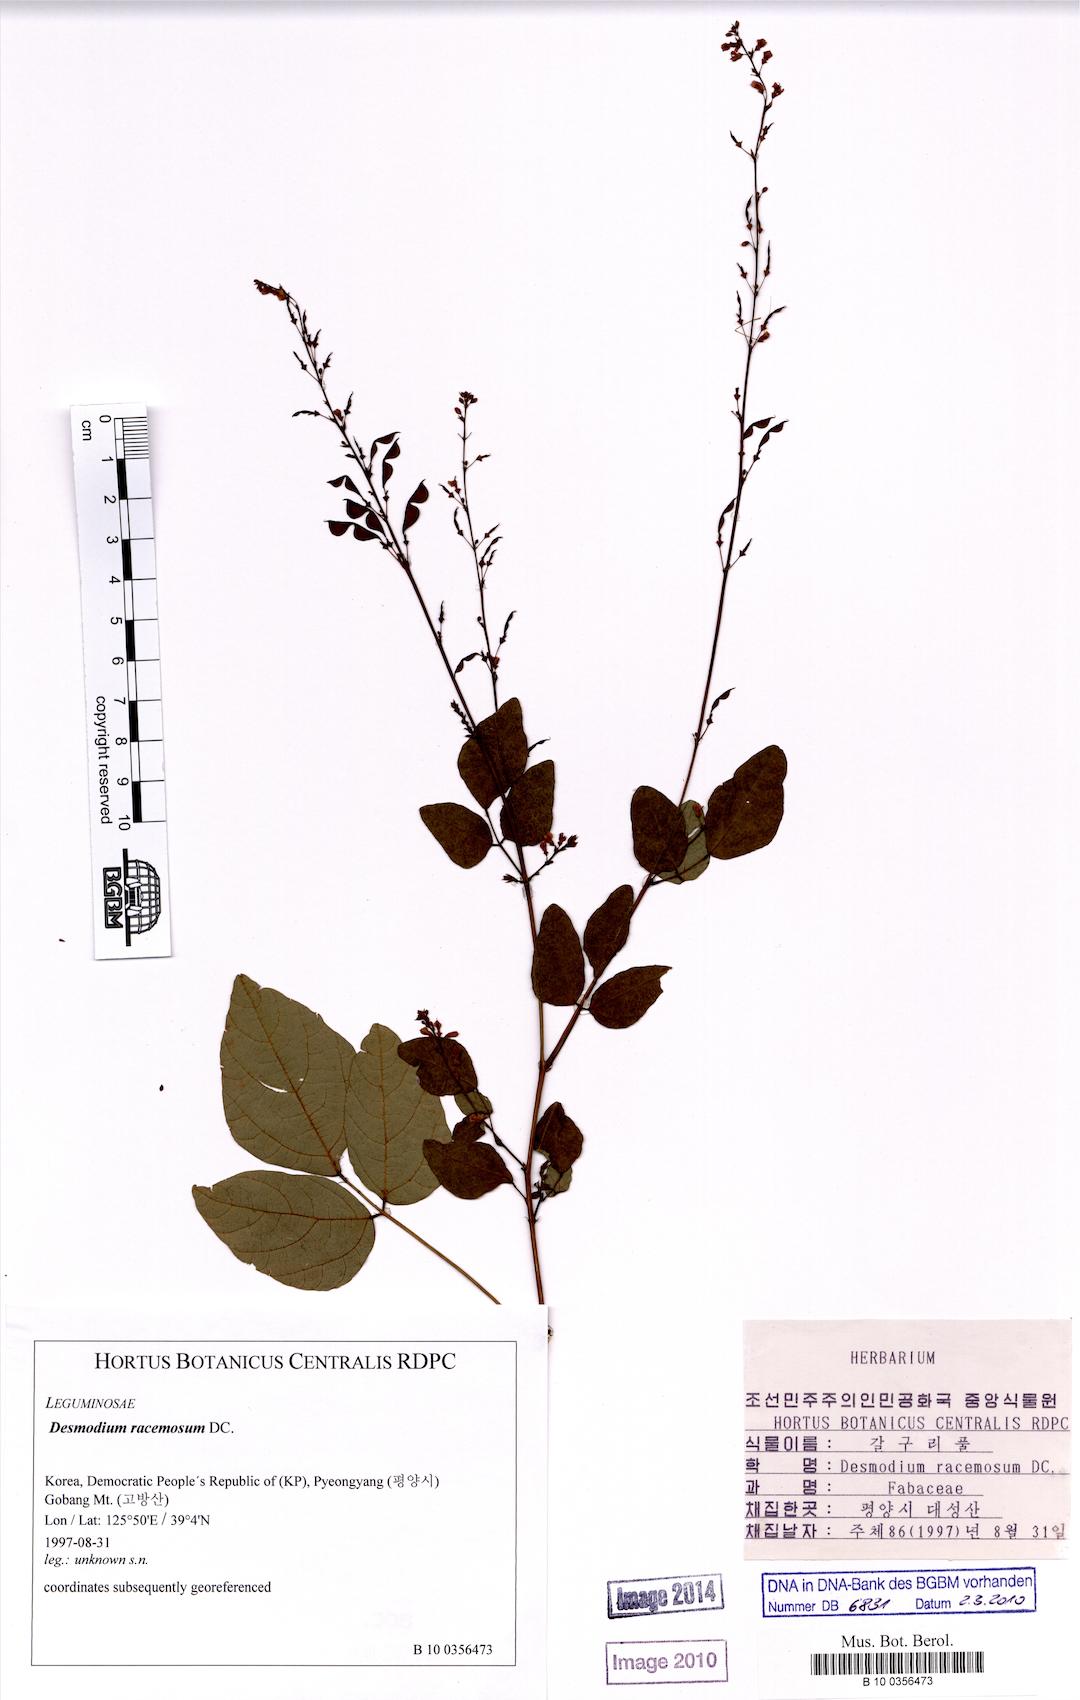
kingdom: Plantae
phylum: Tracheophyta
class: Magnoliopsida
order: Fabales
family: Fabaceae
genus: Hylodesmum
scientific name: Hylodesmum podocarpum
